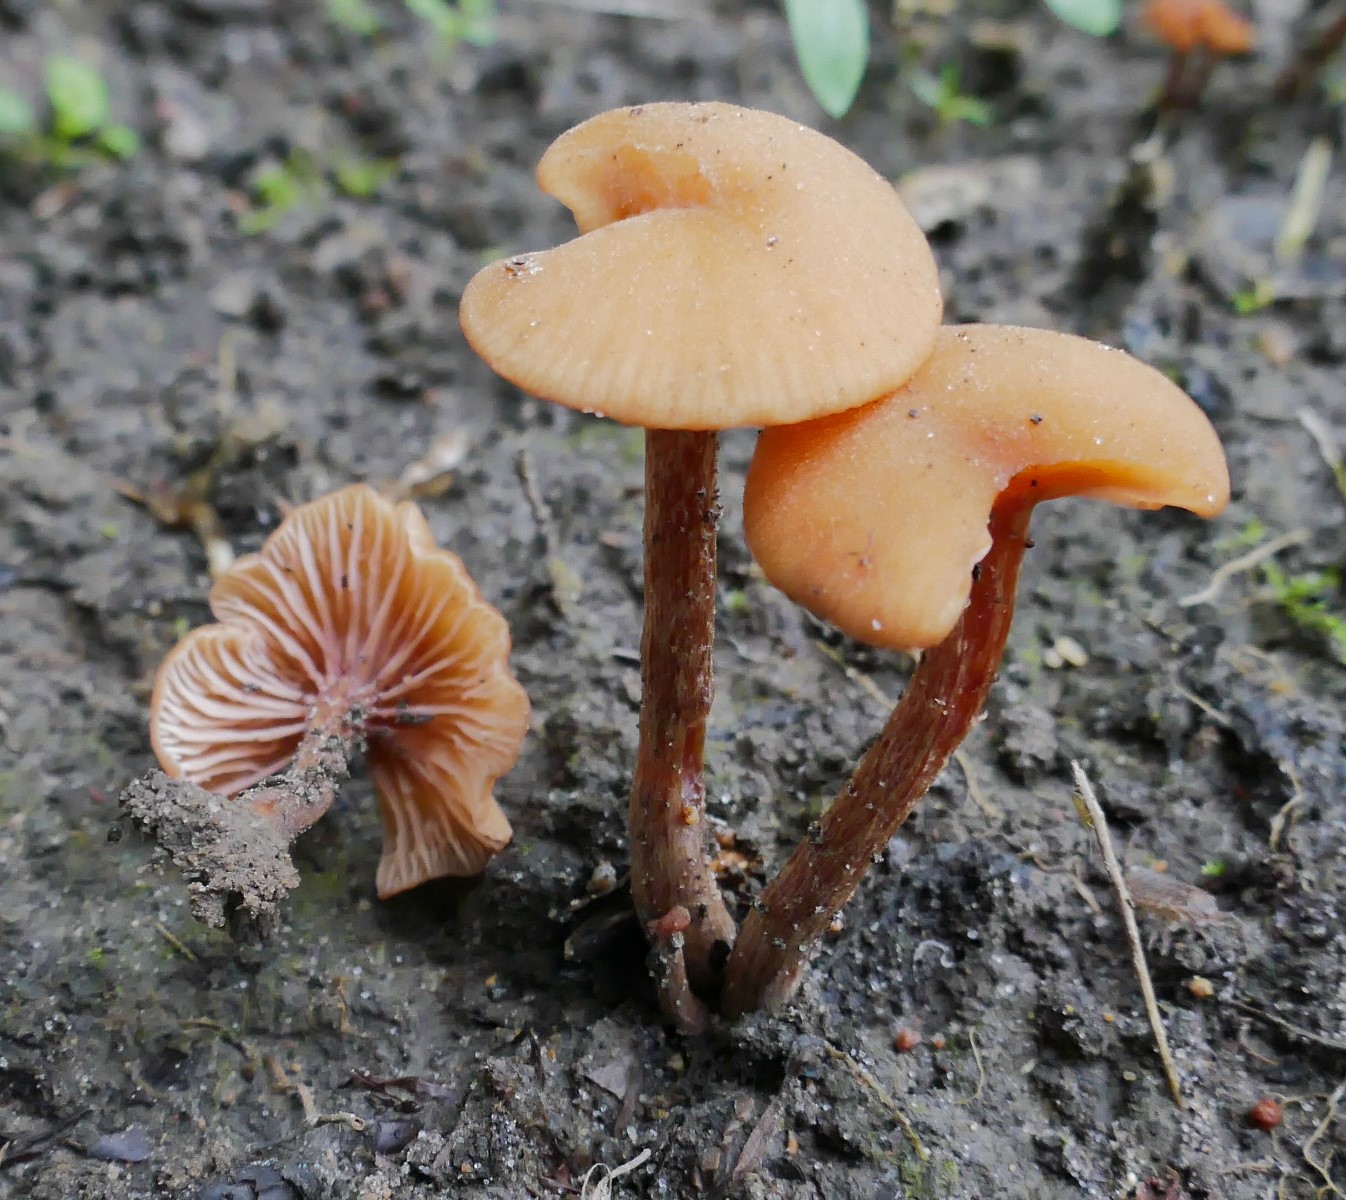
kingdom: Fungi
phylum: Basidiomycota
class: Agaricomycetes
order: Agaricales
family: Hydnangiaceae
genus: Laccaria
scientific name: Laccaria laccata
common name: rød ametysthat
